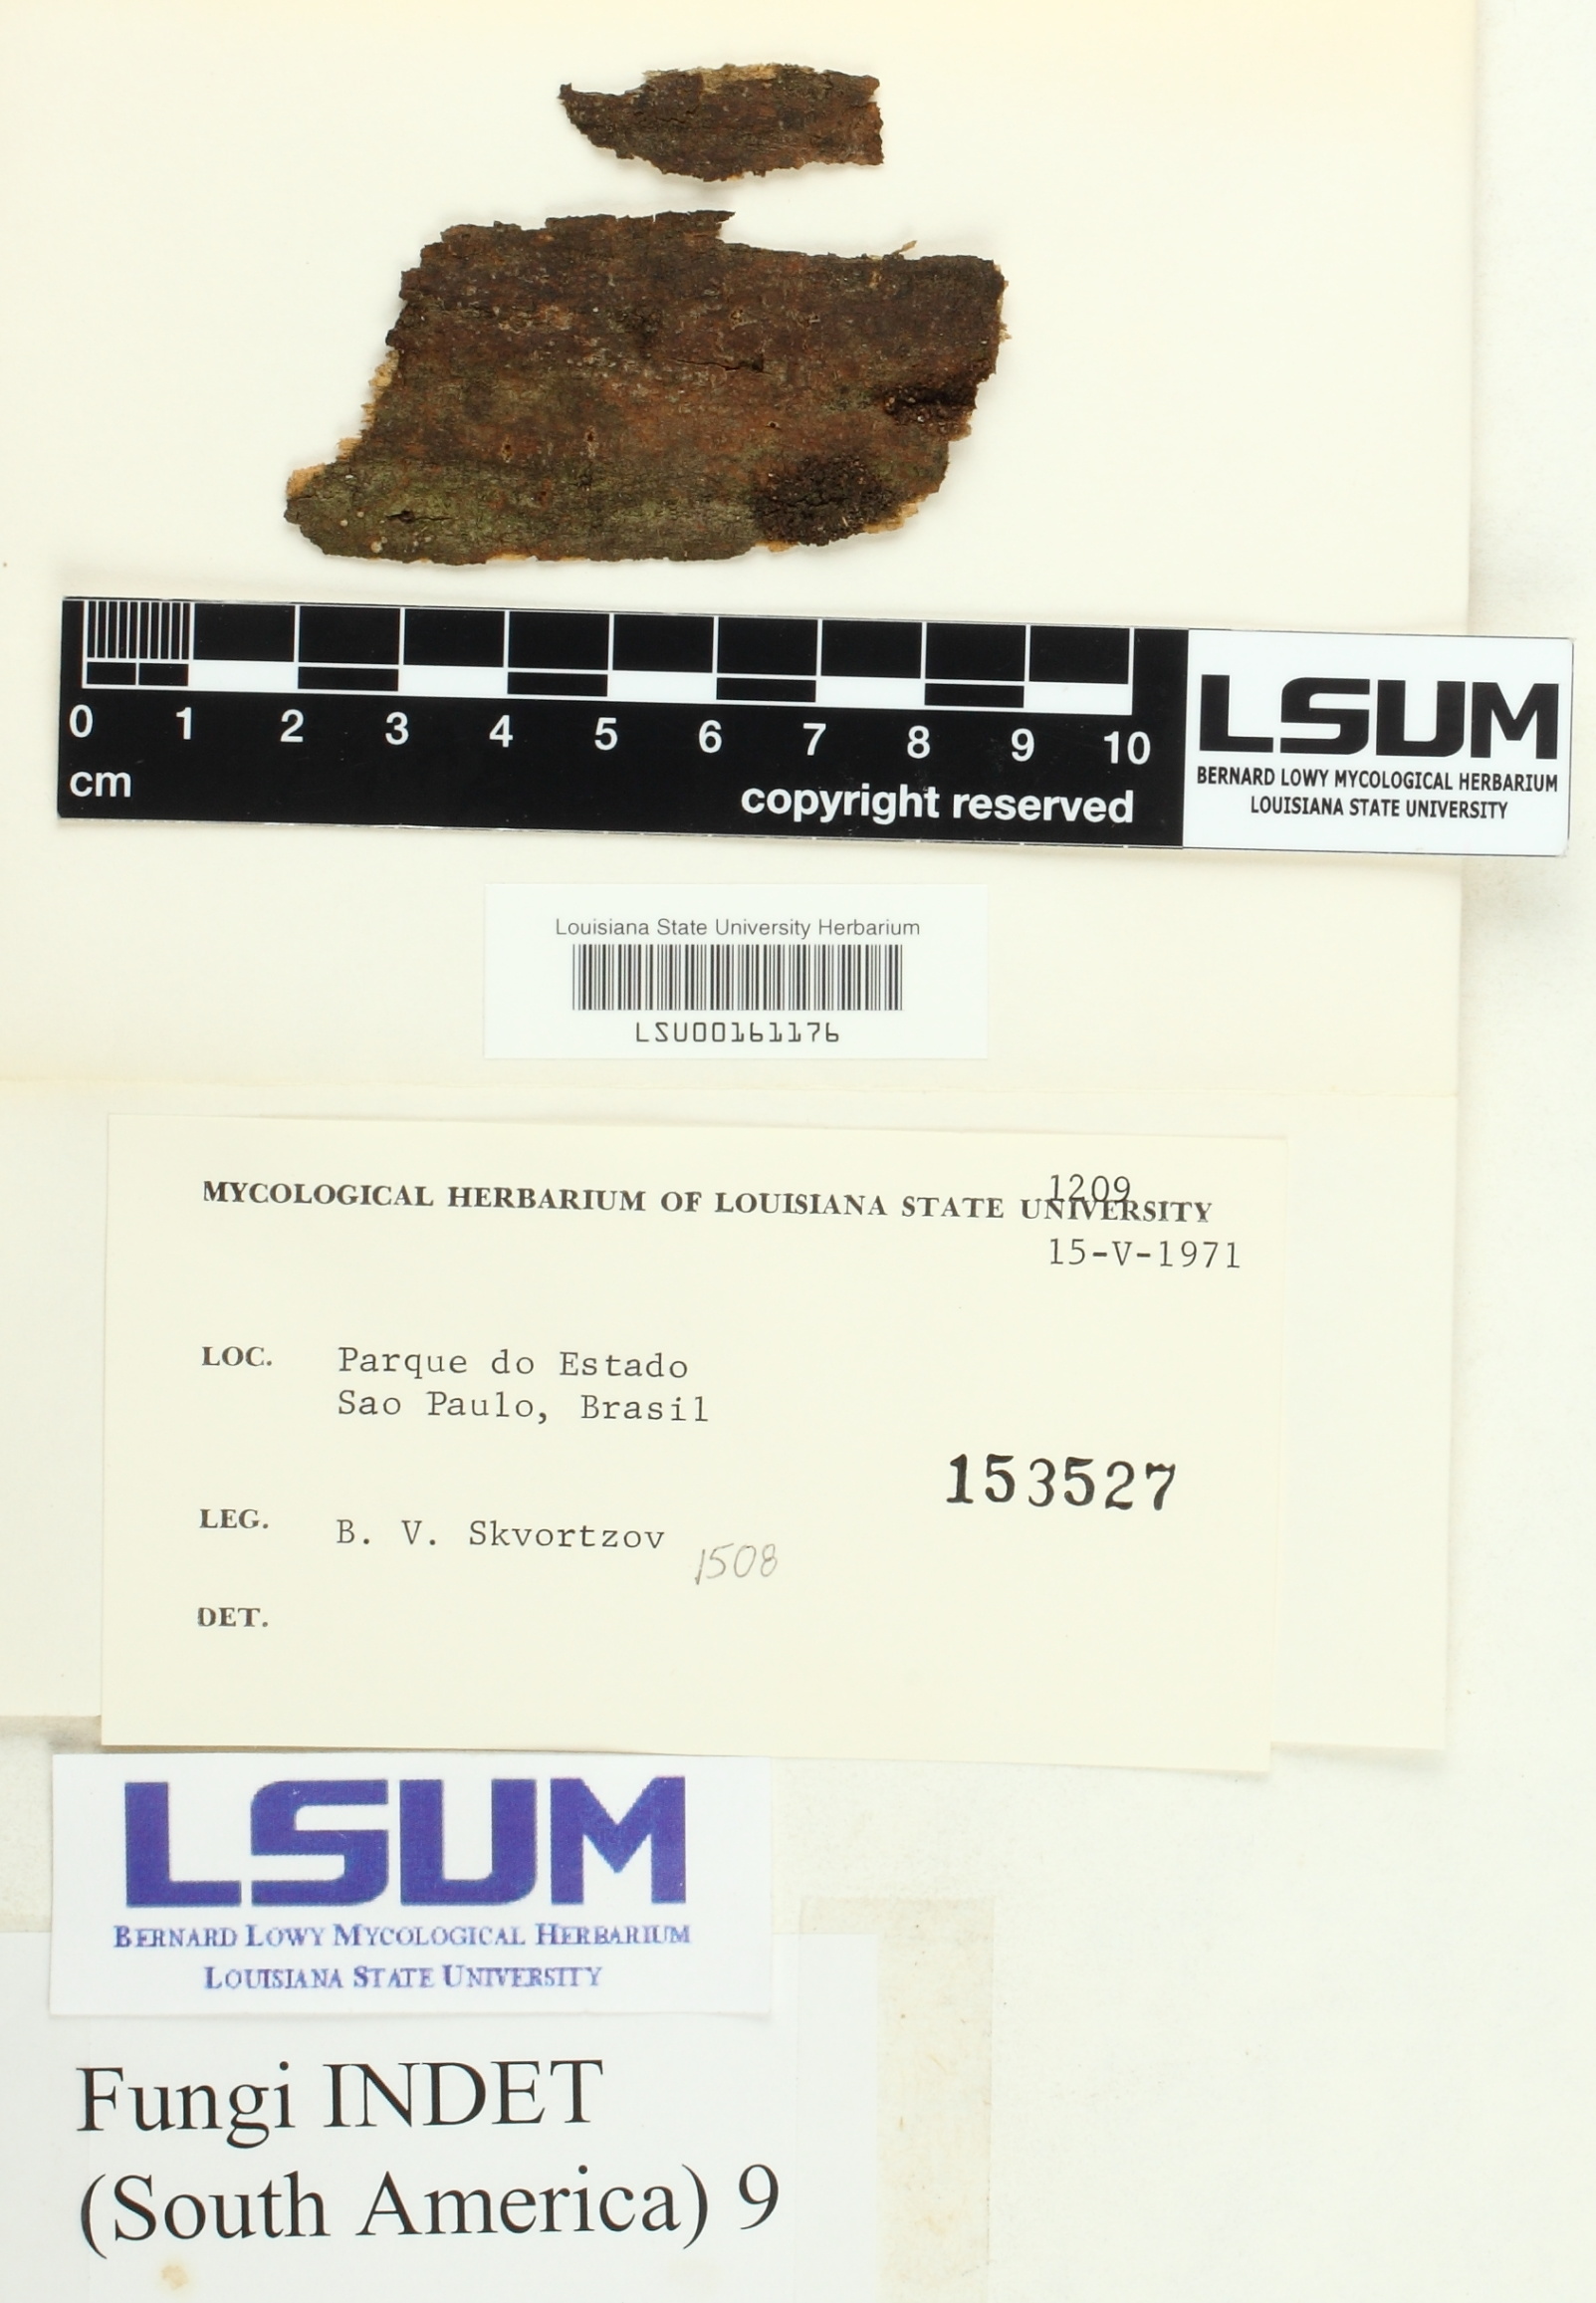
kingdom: Fungi
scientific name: Fungi
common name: Fungi
